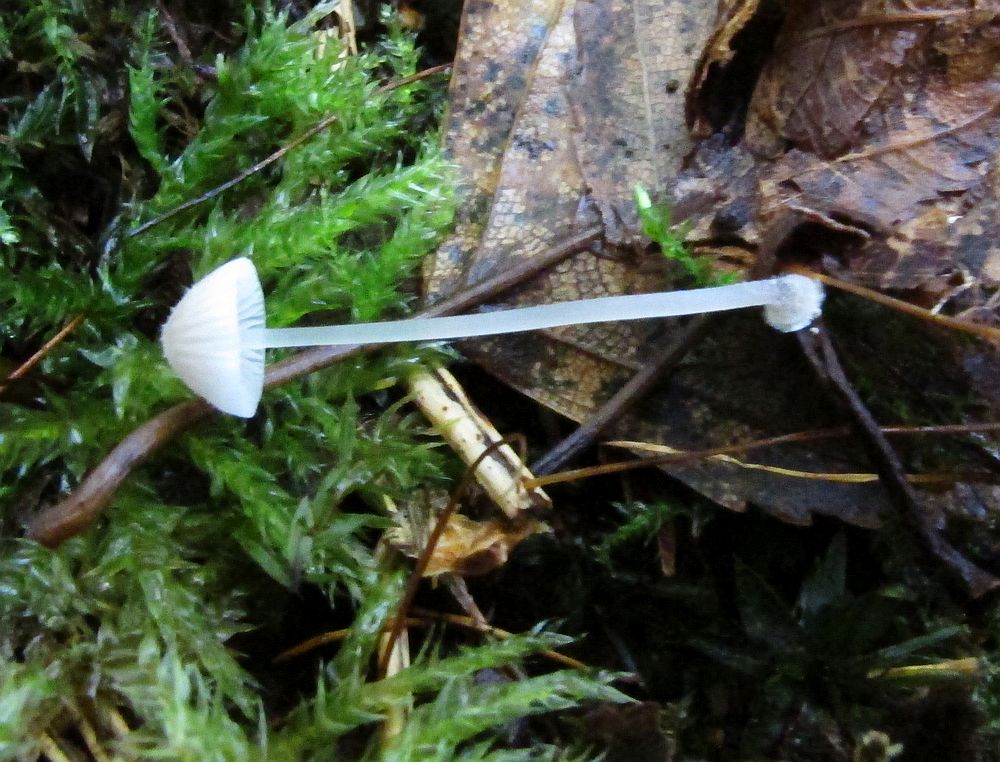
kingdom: Fungi
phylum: Basidiomycota
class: Agaricomycetes
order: Agaricales
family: Mycenaceae
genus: Mycena
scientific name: Mycena stylobates
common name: fureskivet huesvamp
